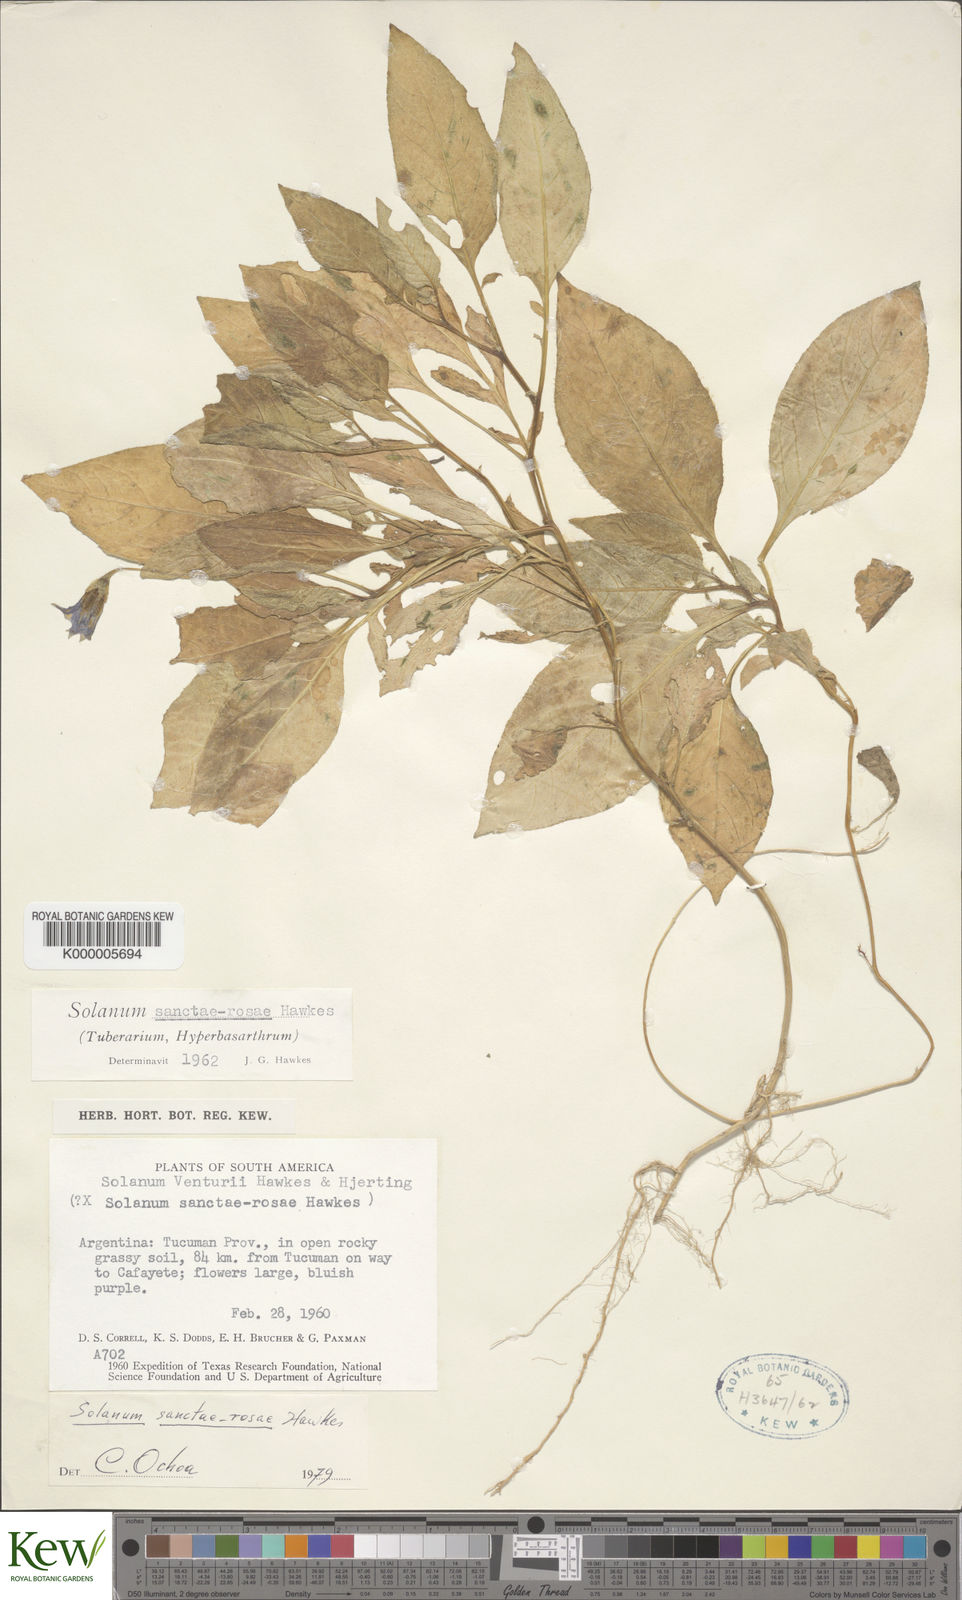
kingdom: Plantae
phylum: Tracheophyta
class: Magnoliopsida
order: Solanales
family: Solanaceae
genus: Solanum
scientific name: Solanum venturii
